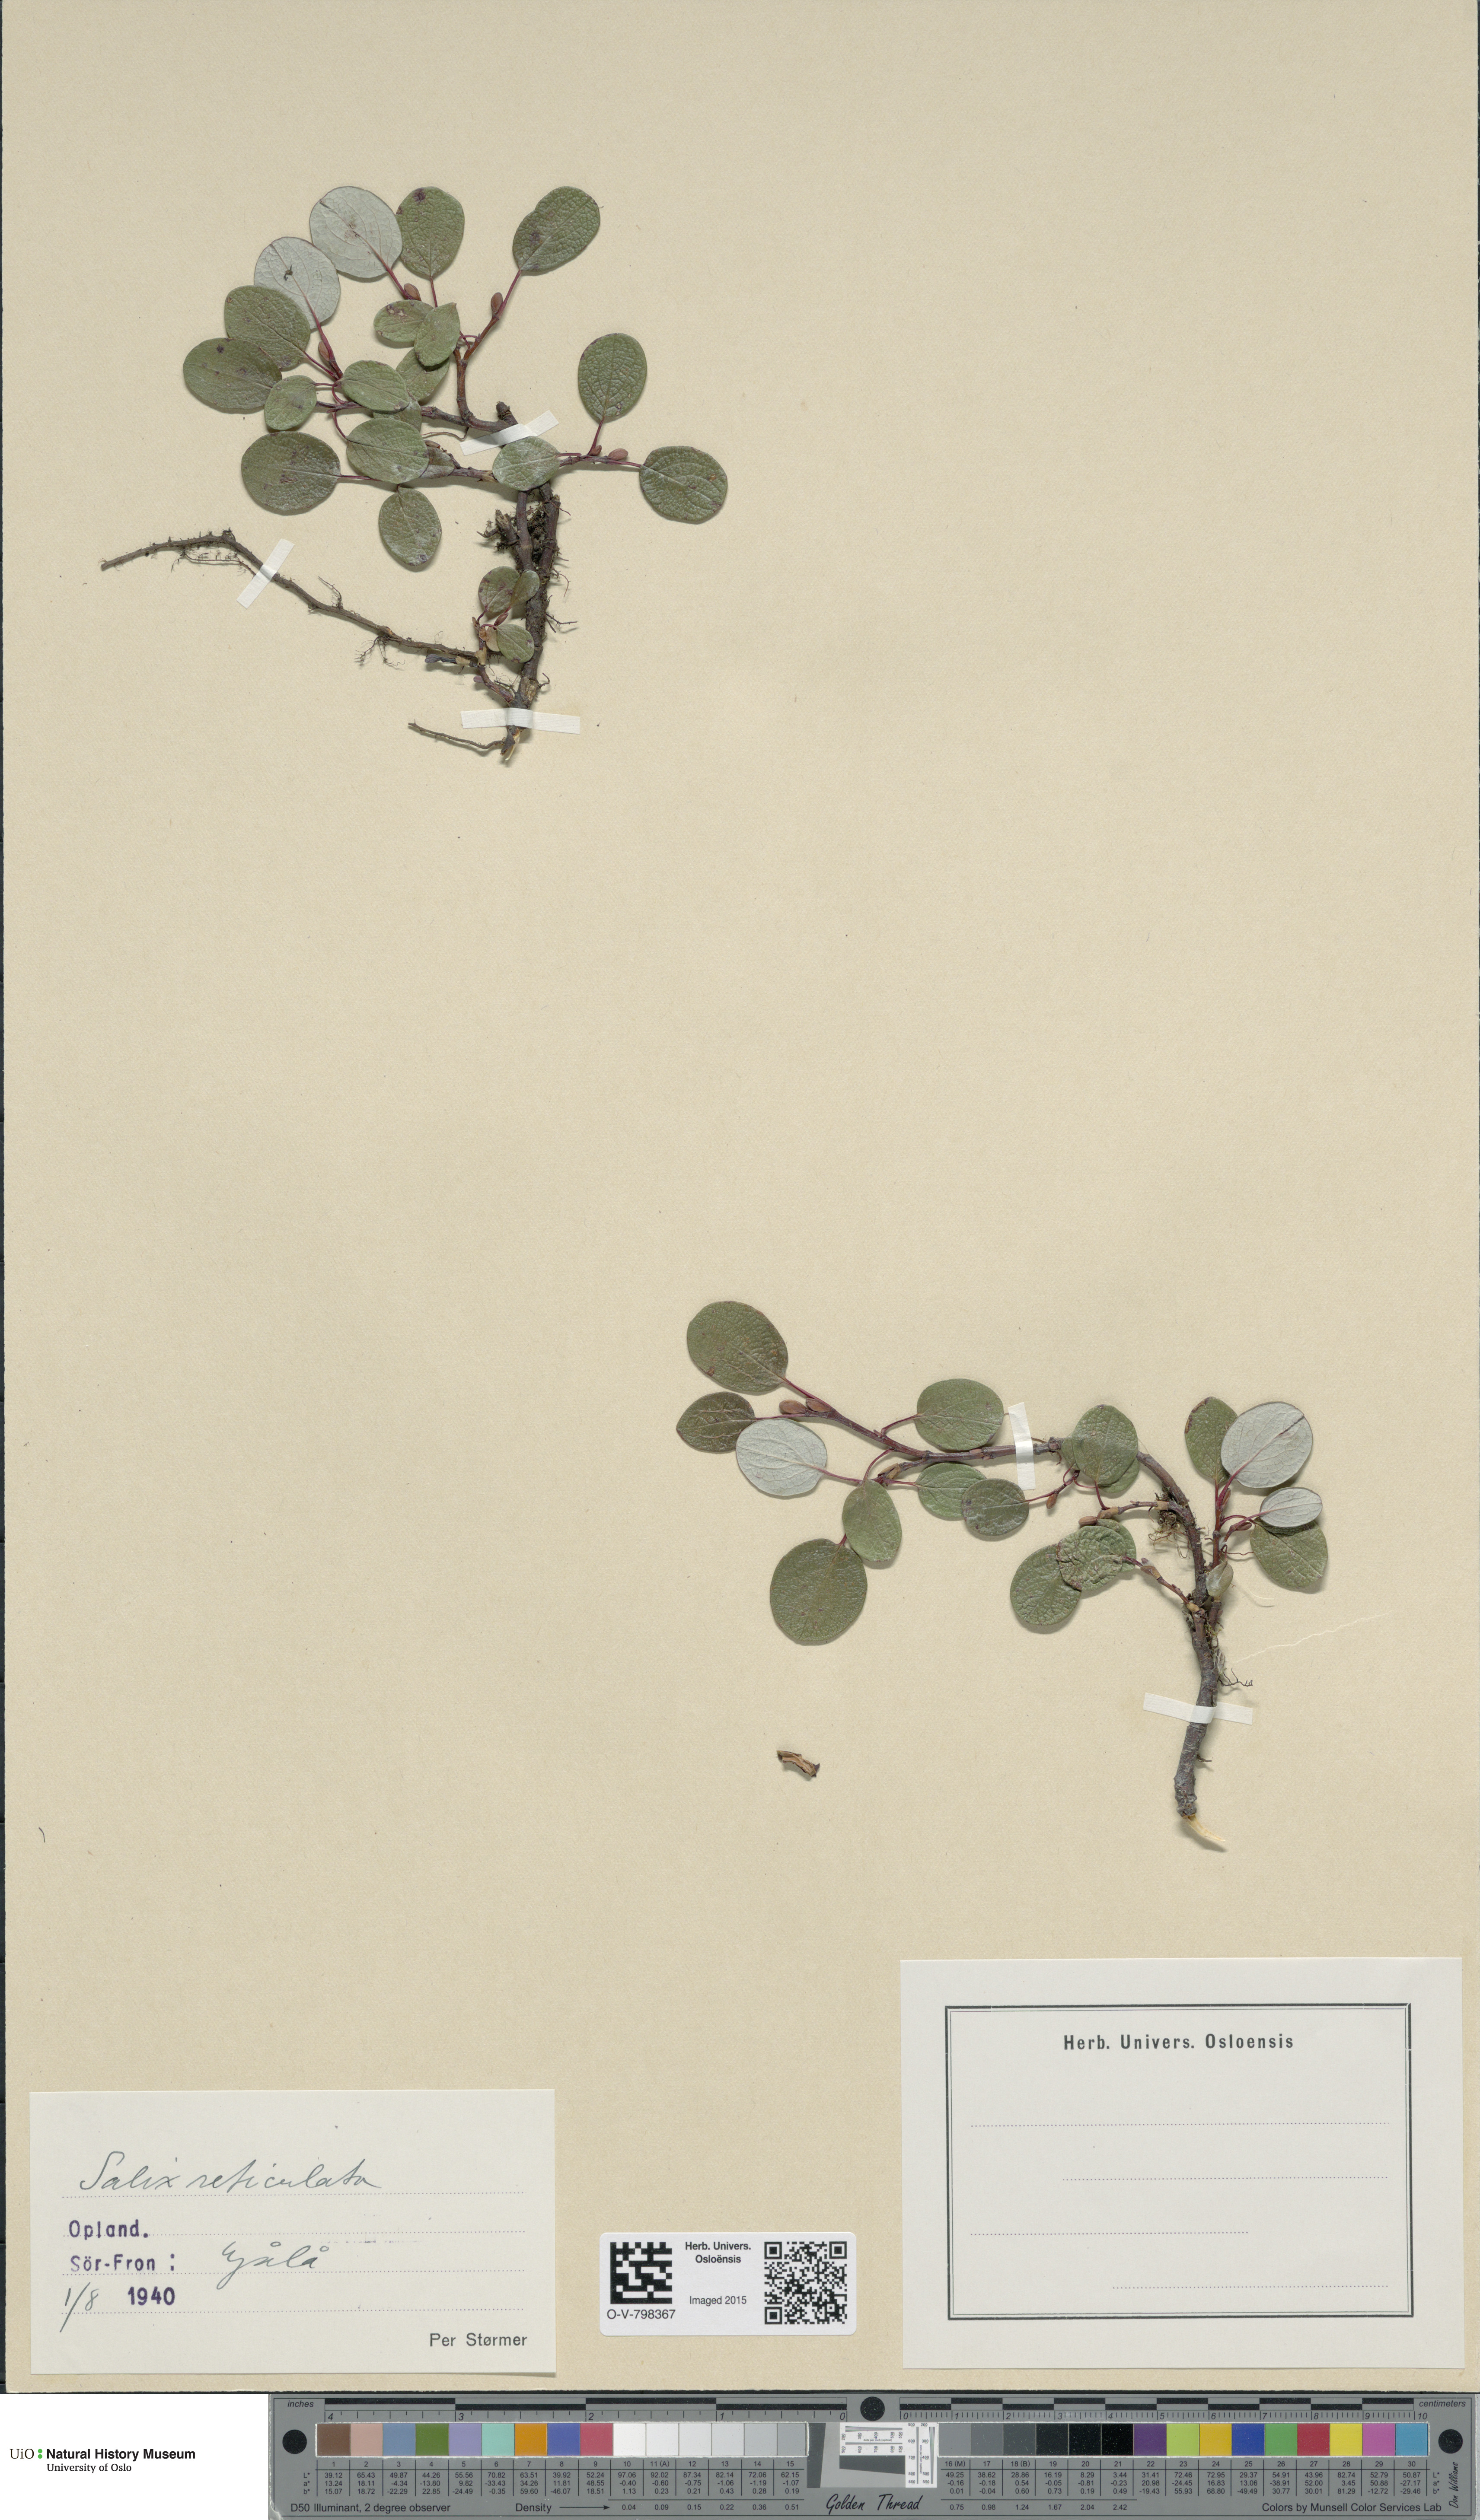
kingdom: Plantae
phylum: Tracheophyta
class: Magnoliopsida
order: Malpighiales
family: Salicaceae
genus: Salix
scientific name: Salix reticulata
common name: Net-leaved willow
